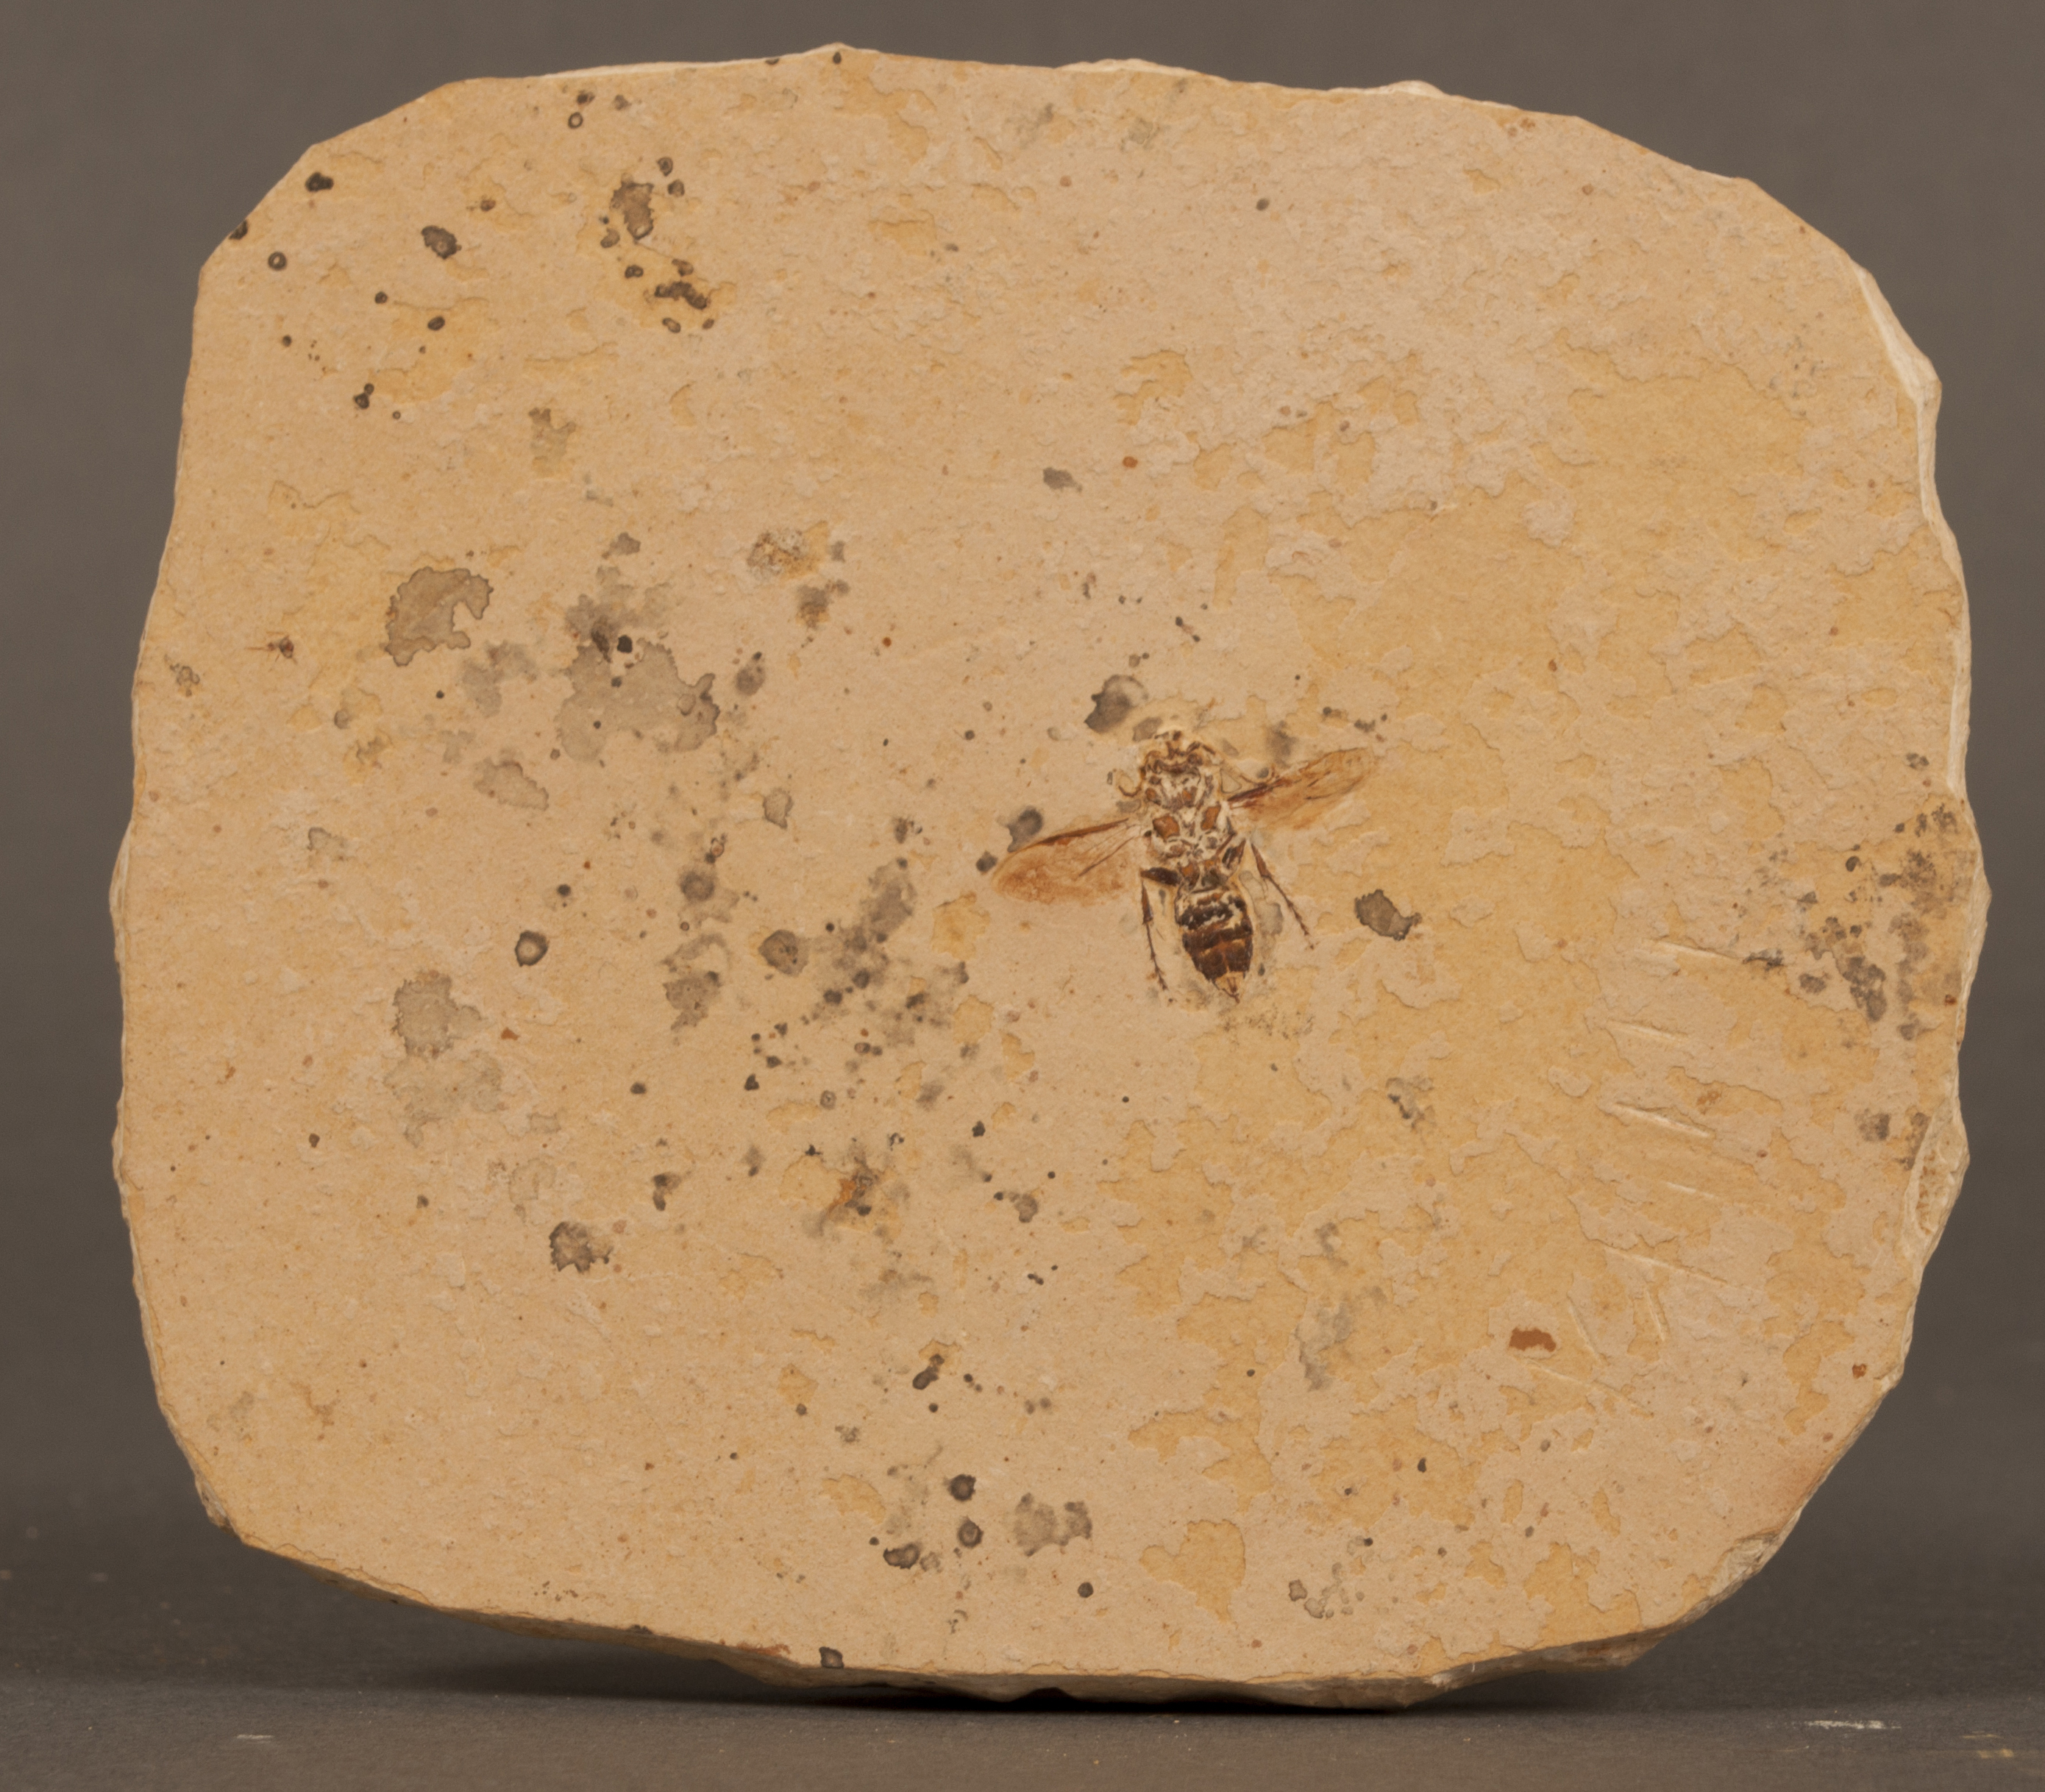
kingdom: Animalia
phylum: Arthropoda
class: Insecta
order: Hymenoptera
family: Thynnidae
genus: Architiphia
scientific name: Architiphia rasnitsyni
